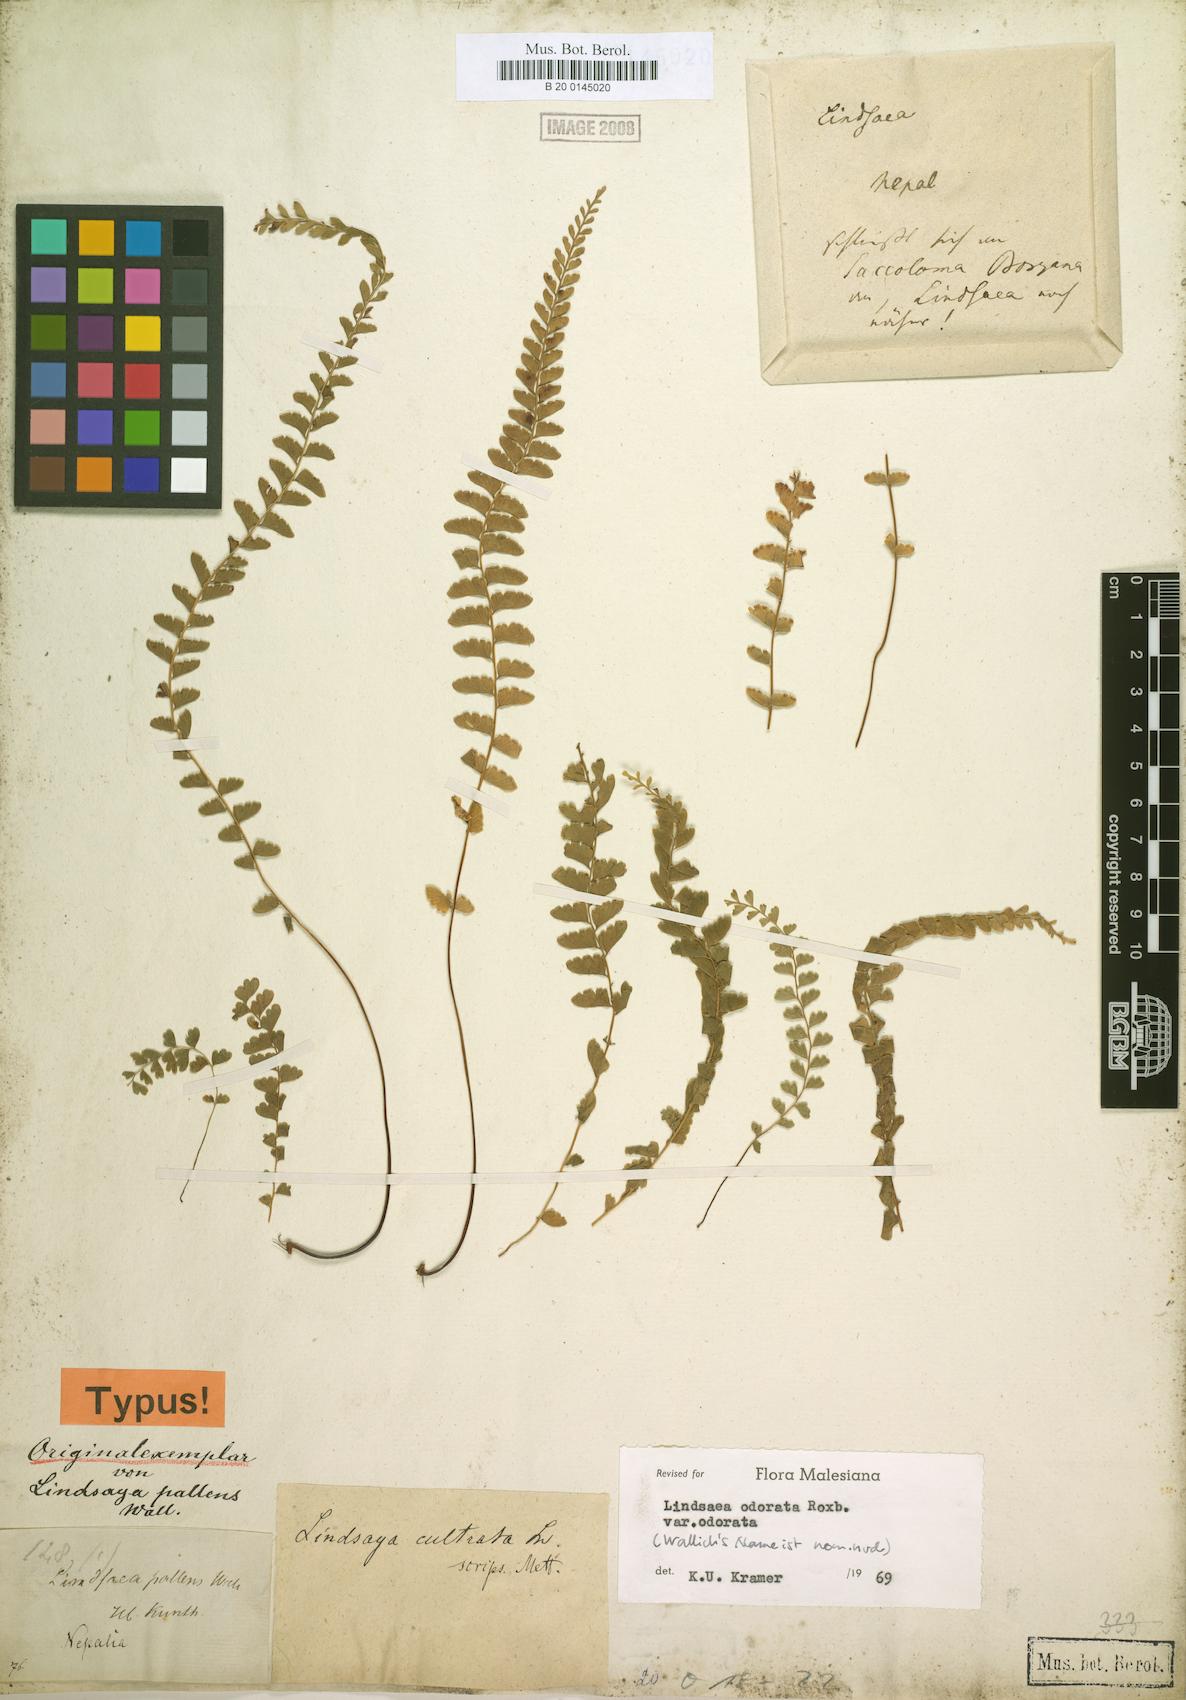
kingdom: Plantae
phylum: Tracheophyta
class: Polypodiopsida
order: Polypodiales
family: Lindsaeaceae
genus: Osmolindsaea
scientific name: Osmolindsaea odorata
